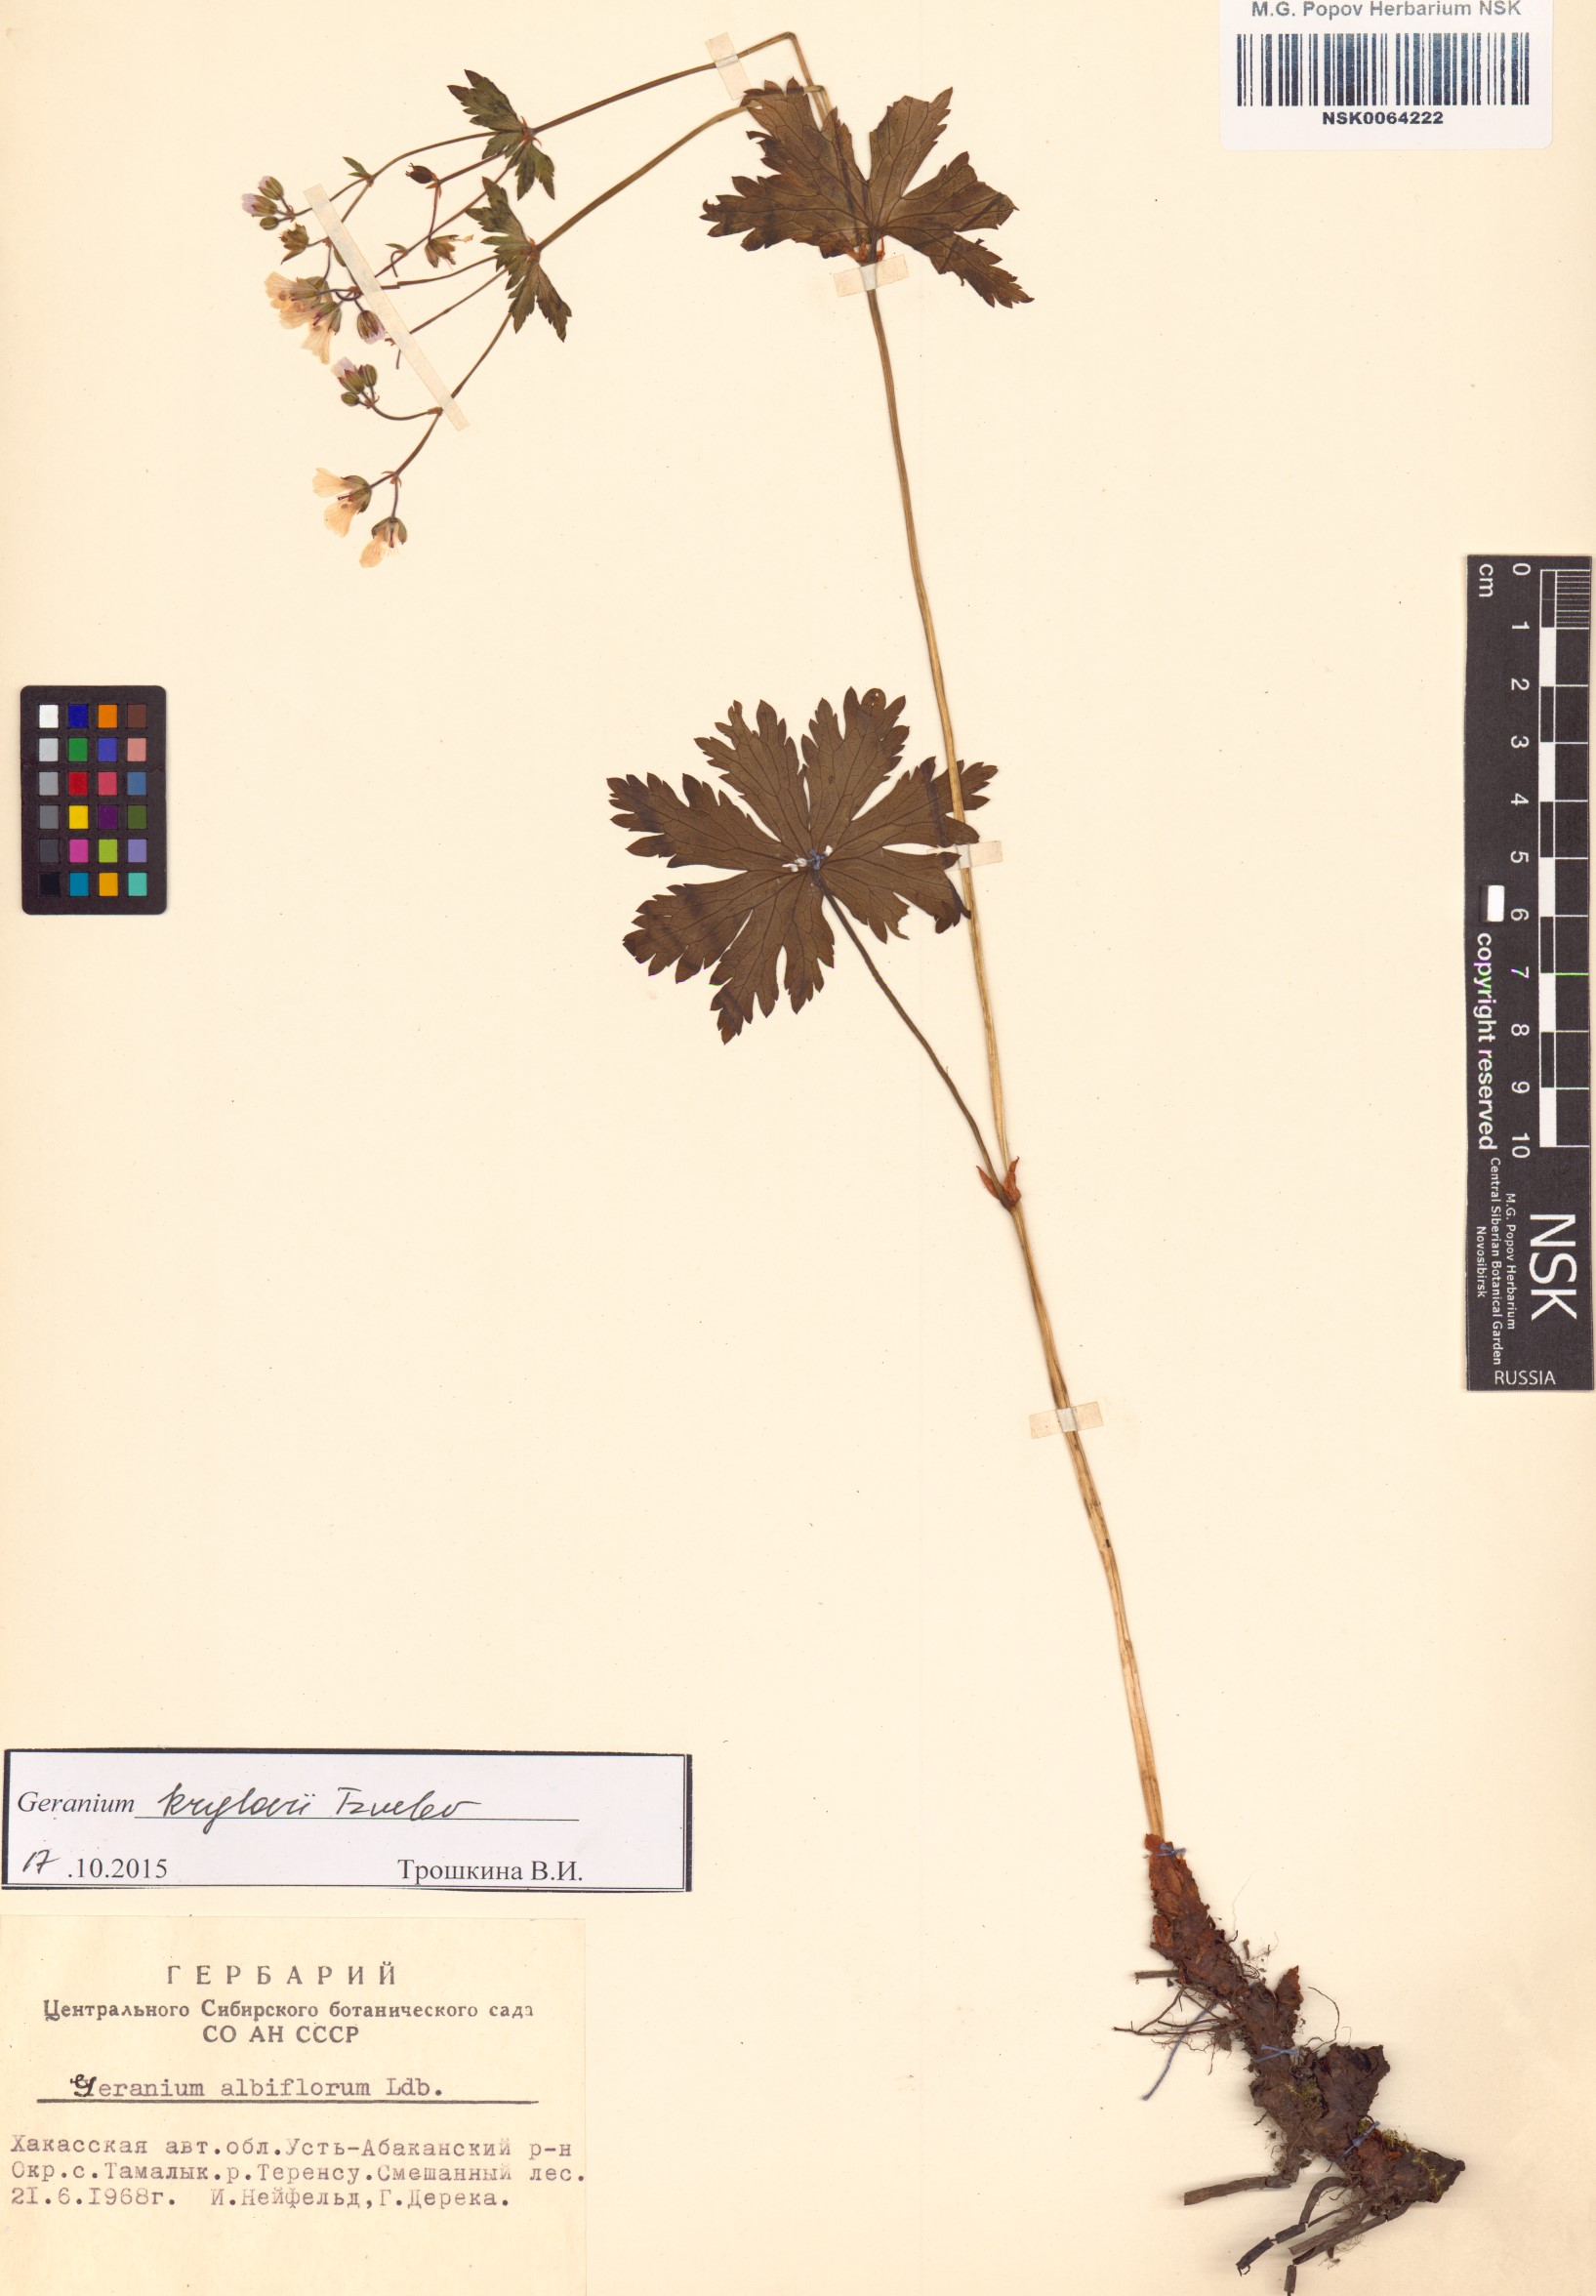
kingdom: Plantae
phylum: Tracheophyta
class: Magnoliopsida
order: Geraniales
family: Geraniaceae
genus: Geranium
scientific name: Geranium sylvaticum
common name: Wood crane's-bill
